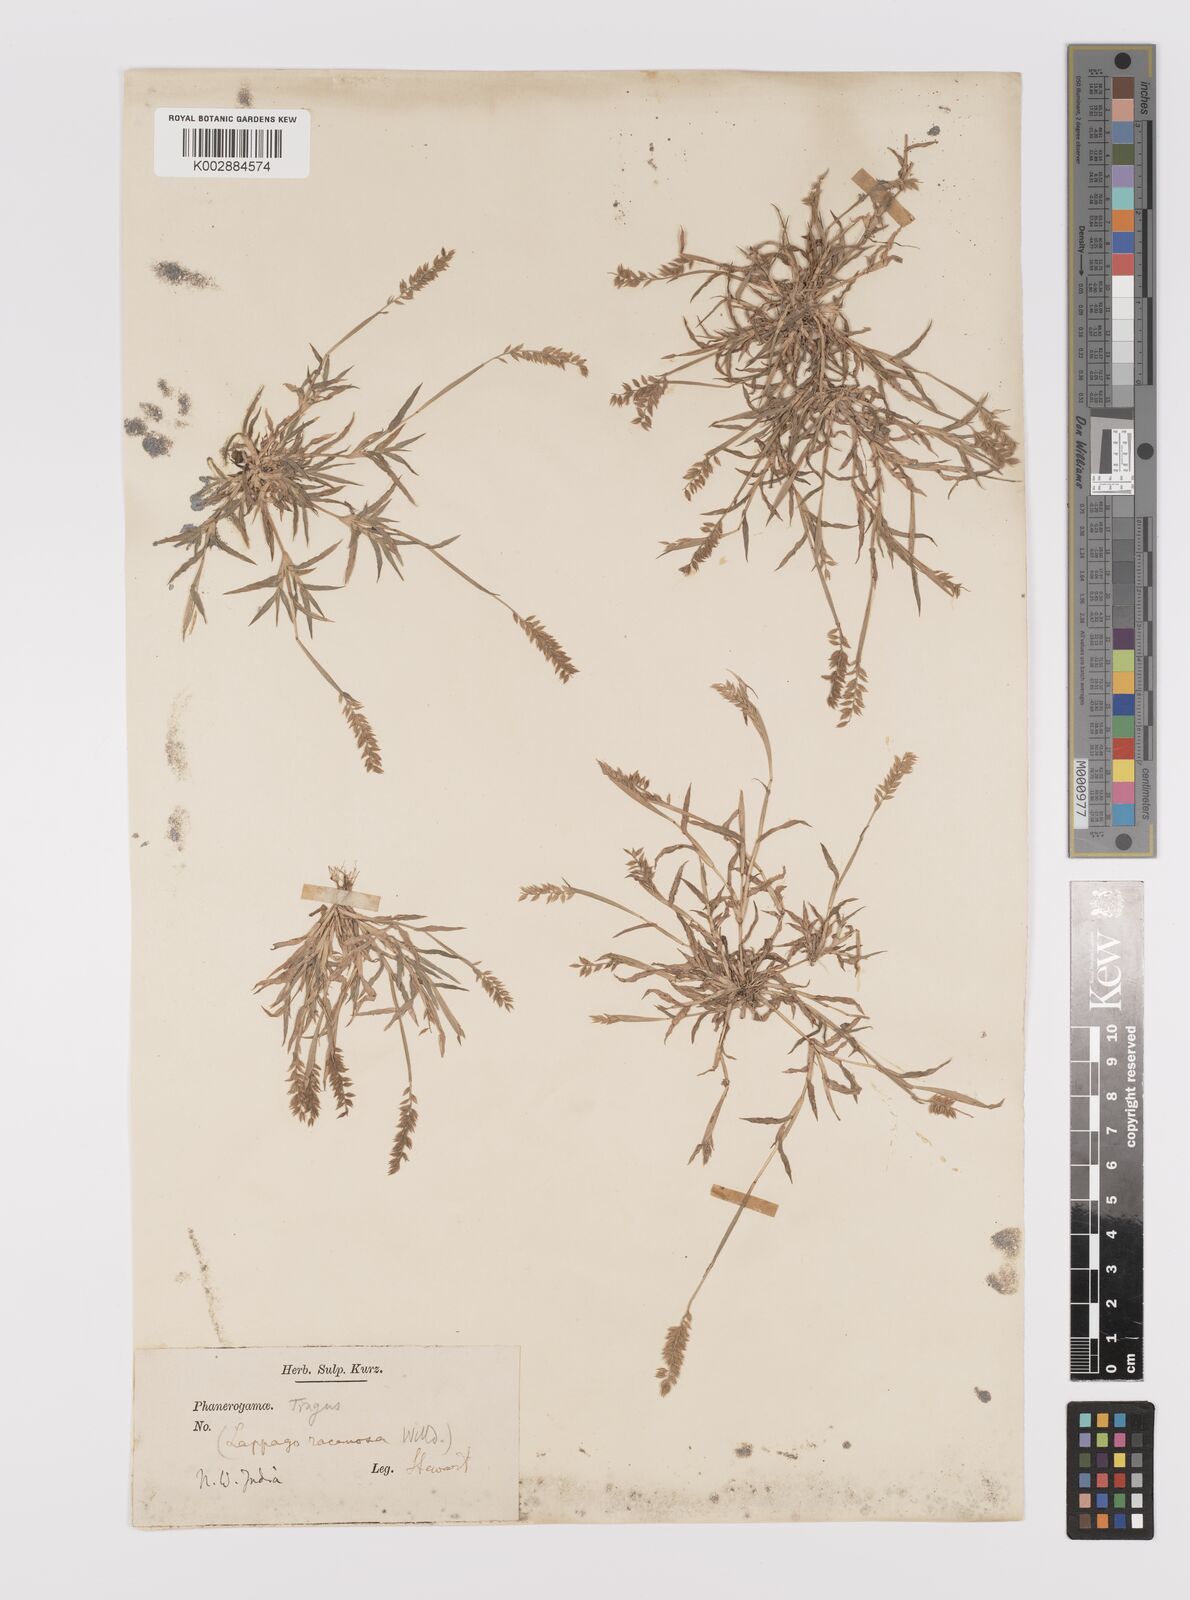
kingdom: Plantae
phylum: Tracheophyta
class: Liliopsida
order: Poales
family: Poaceae
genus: Tragus
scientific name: Tragus mongolorum
